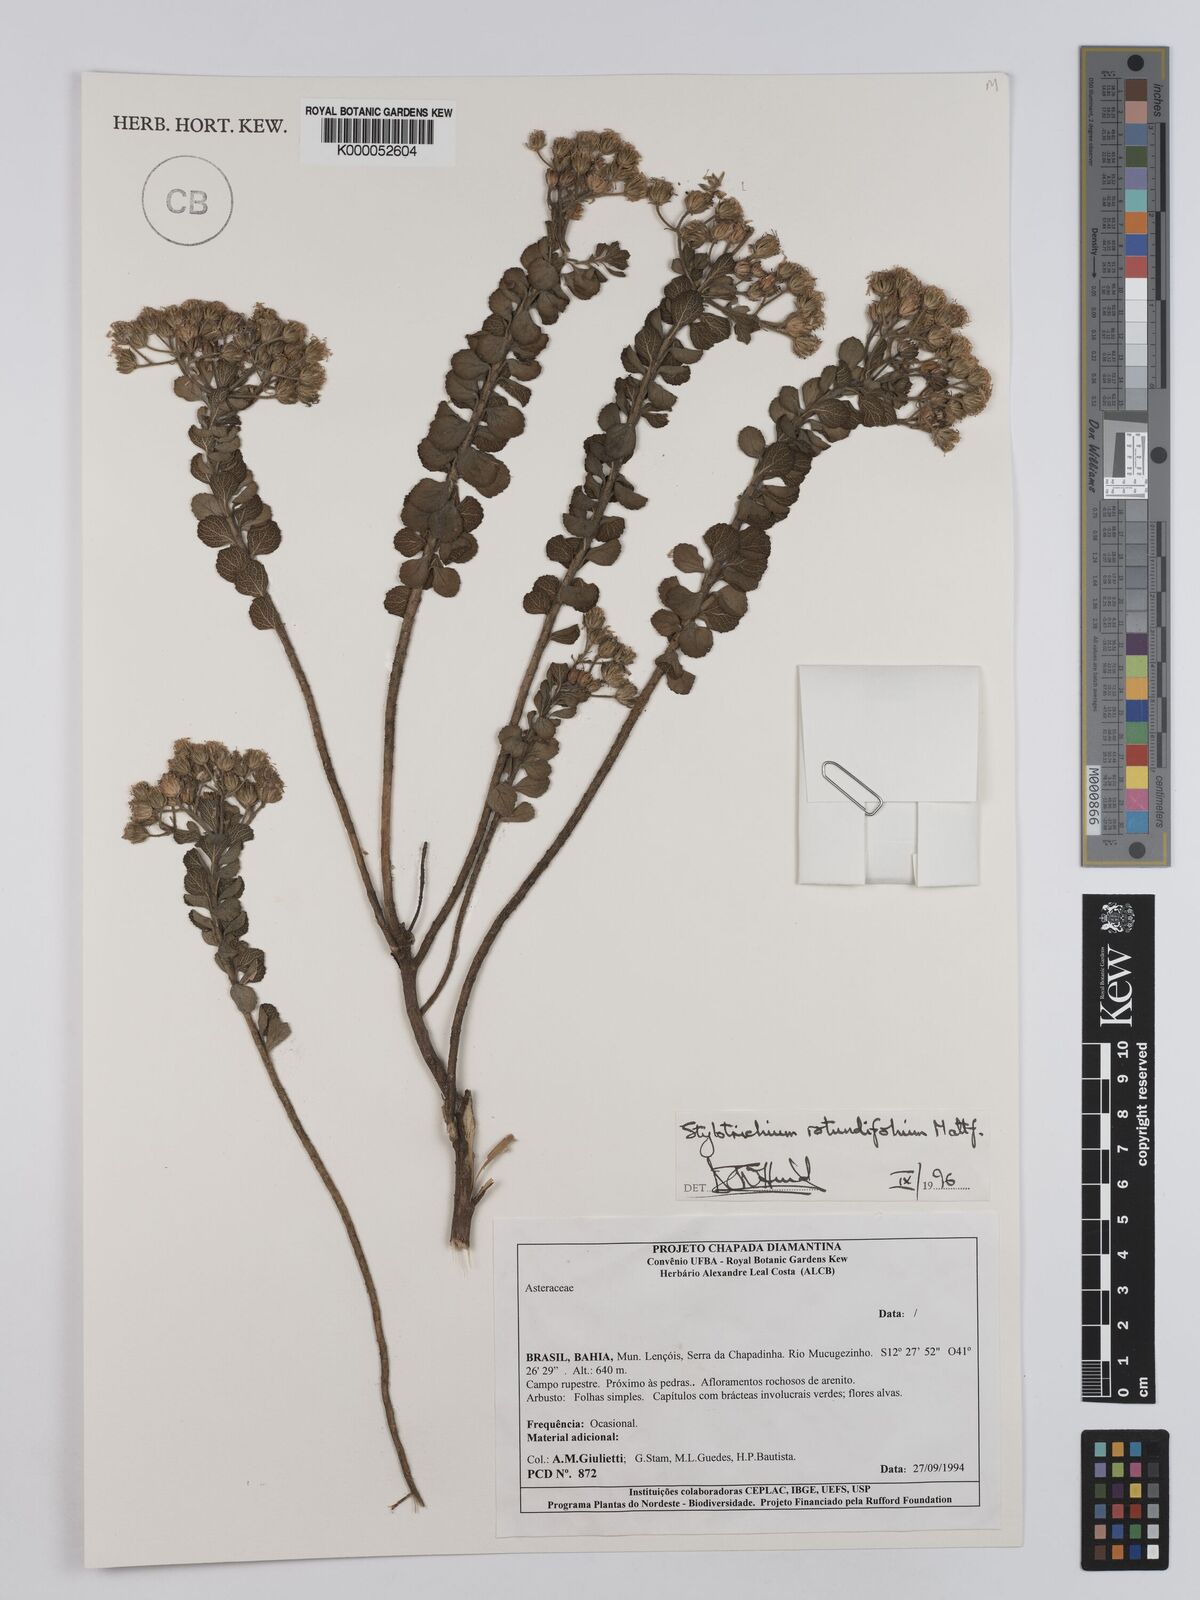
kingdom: Plantae
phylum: Tracheophyta
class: Magnoliopsida
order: Asterales
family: Asteraceae
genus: Stylotrichium
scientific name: Stylotrichium rotundifolium
